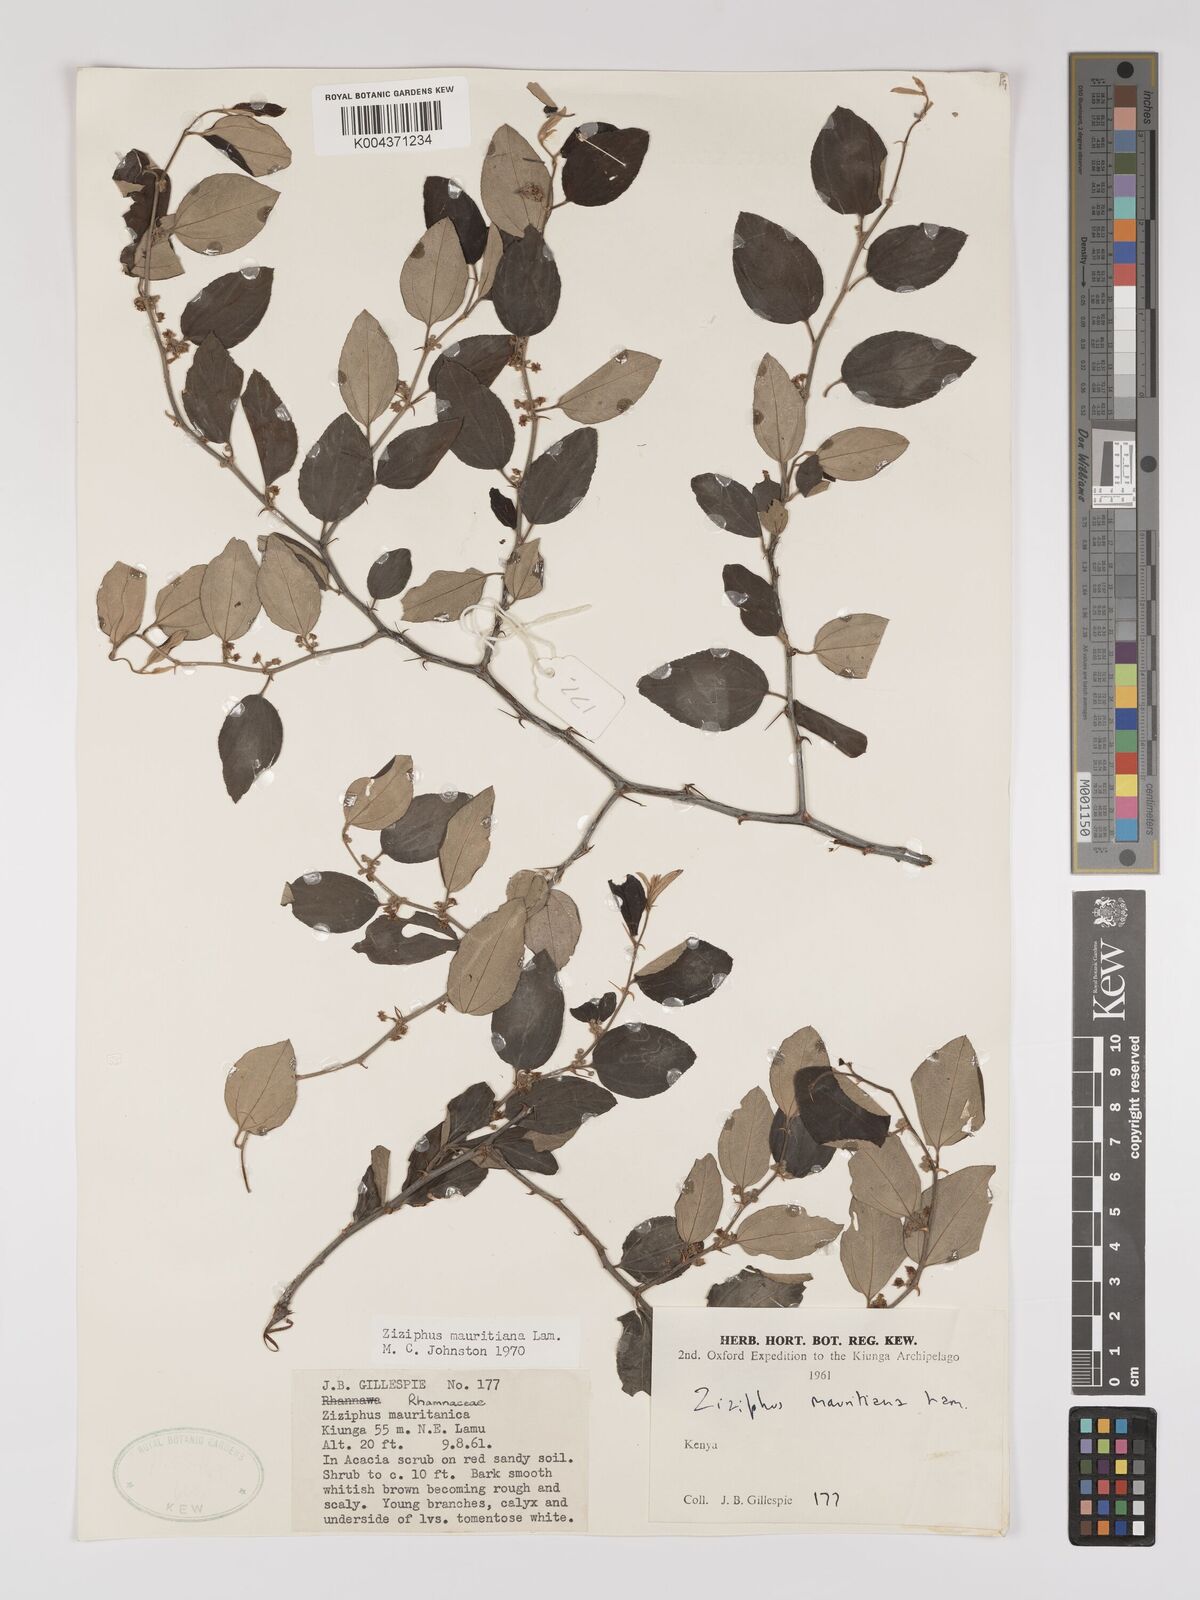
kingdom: Plantae
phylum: Tracheophyta
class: Magnoliopsida
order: Rosales
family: Rhamnaceae
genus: Ziziphus
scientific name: Ziziphus mauritiana
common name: Indian jujube
